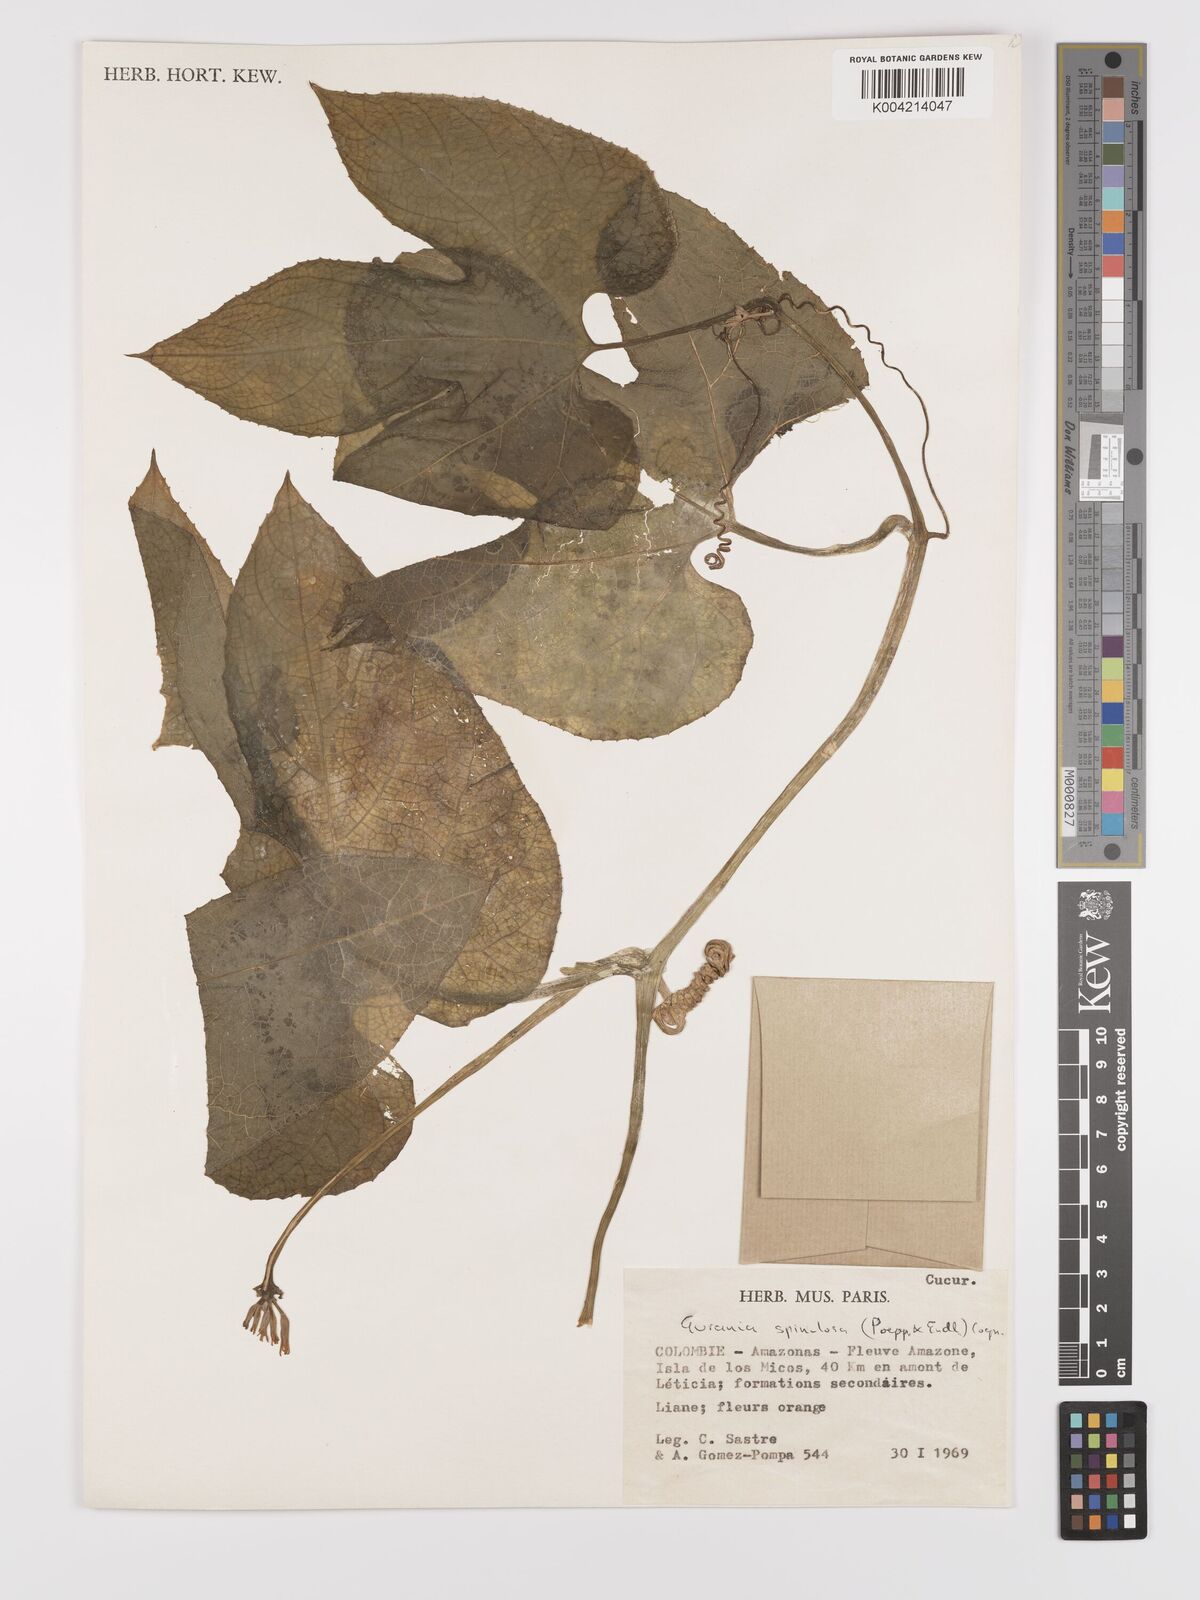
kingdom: Plantae
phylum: Tracheophyta
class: Magnoliopsida
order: Cucurbitales
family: Cucurbitaceae
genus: Gurania
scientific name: Gurania lobata
